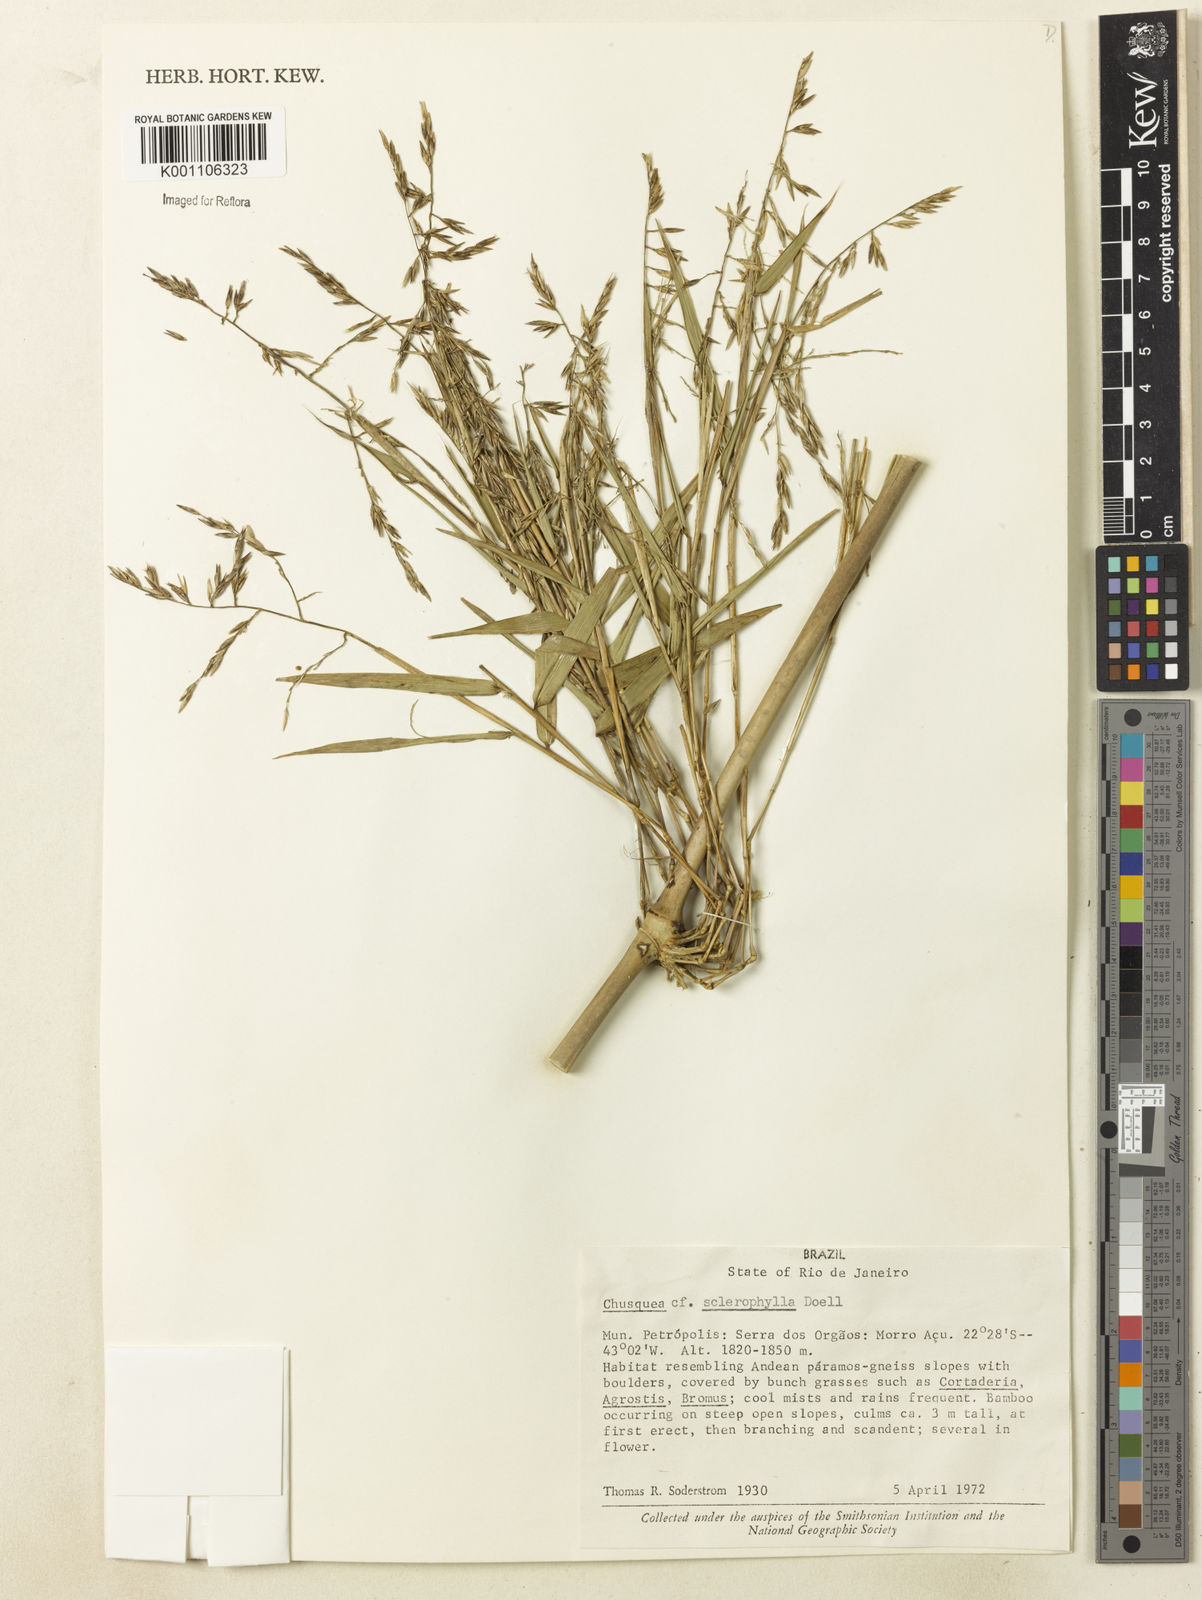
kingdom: Plantae
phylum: Tracheophyta
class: Liliopsida
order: Poales
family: Poaceae
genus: Chusquea
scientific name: Chusquea
